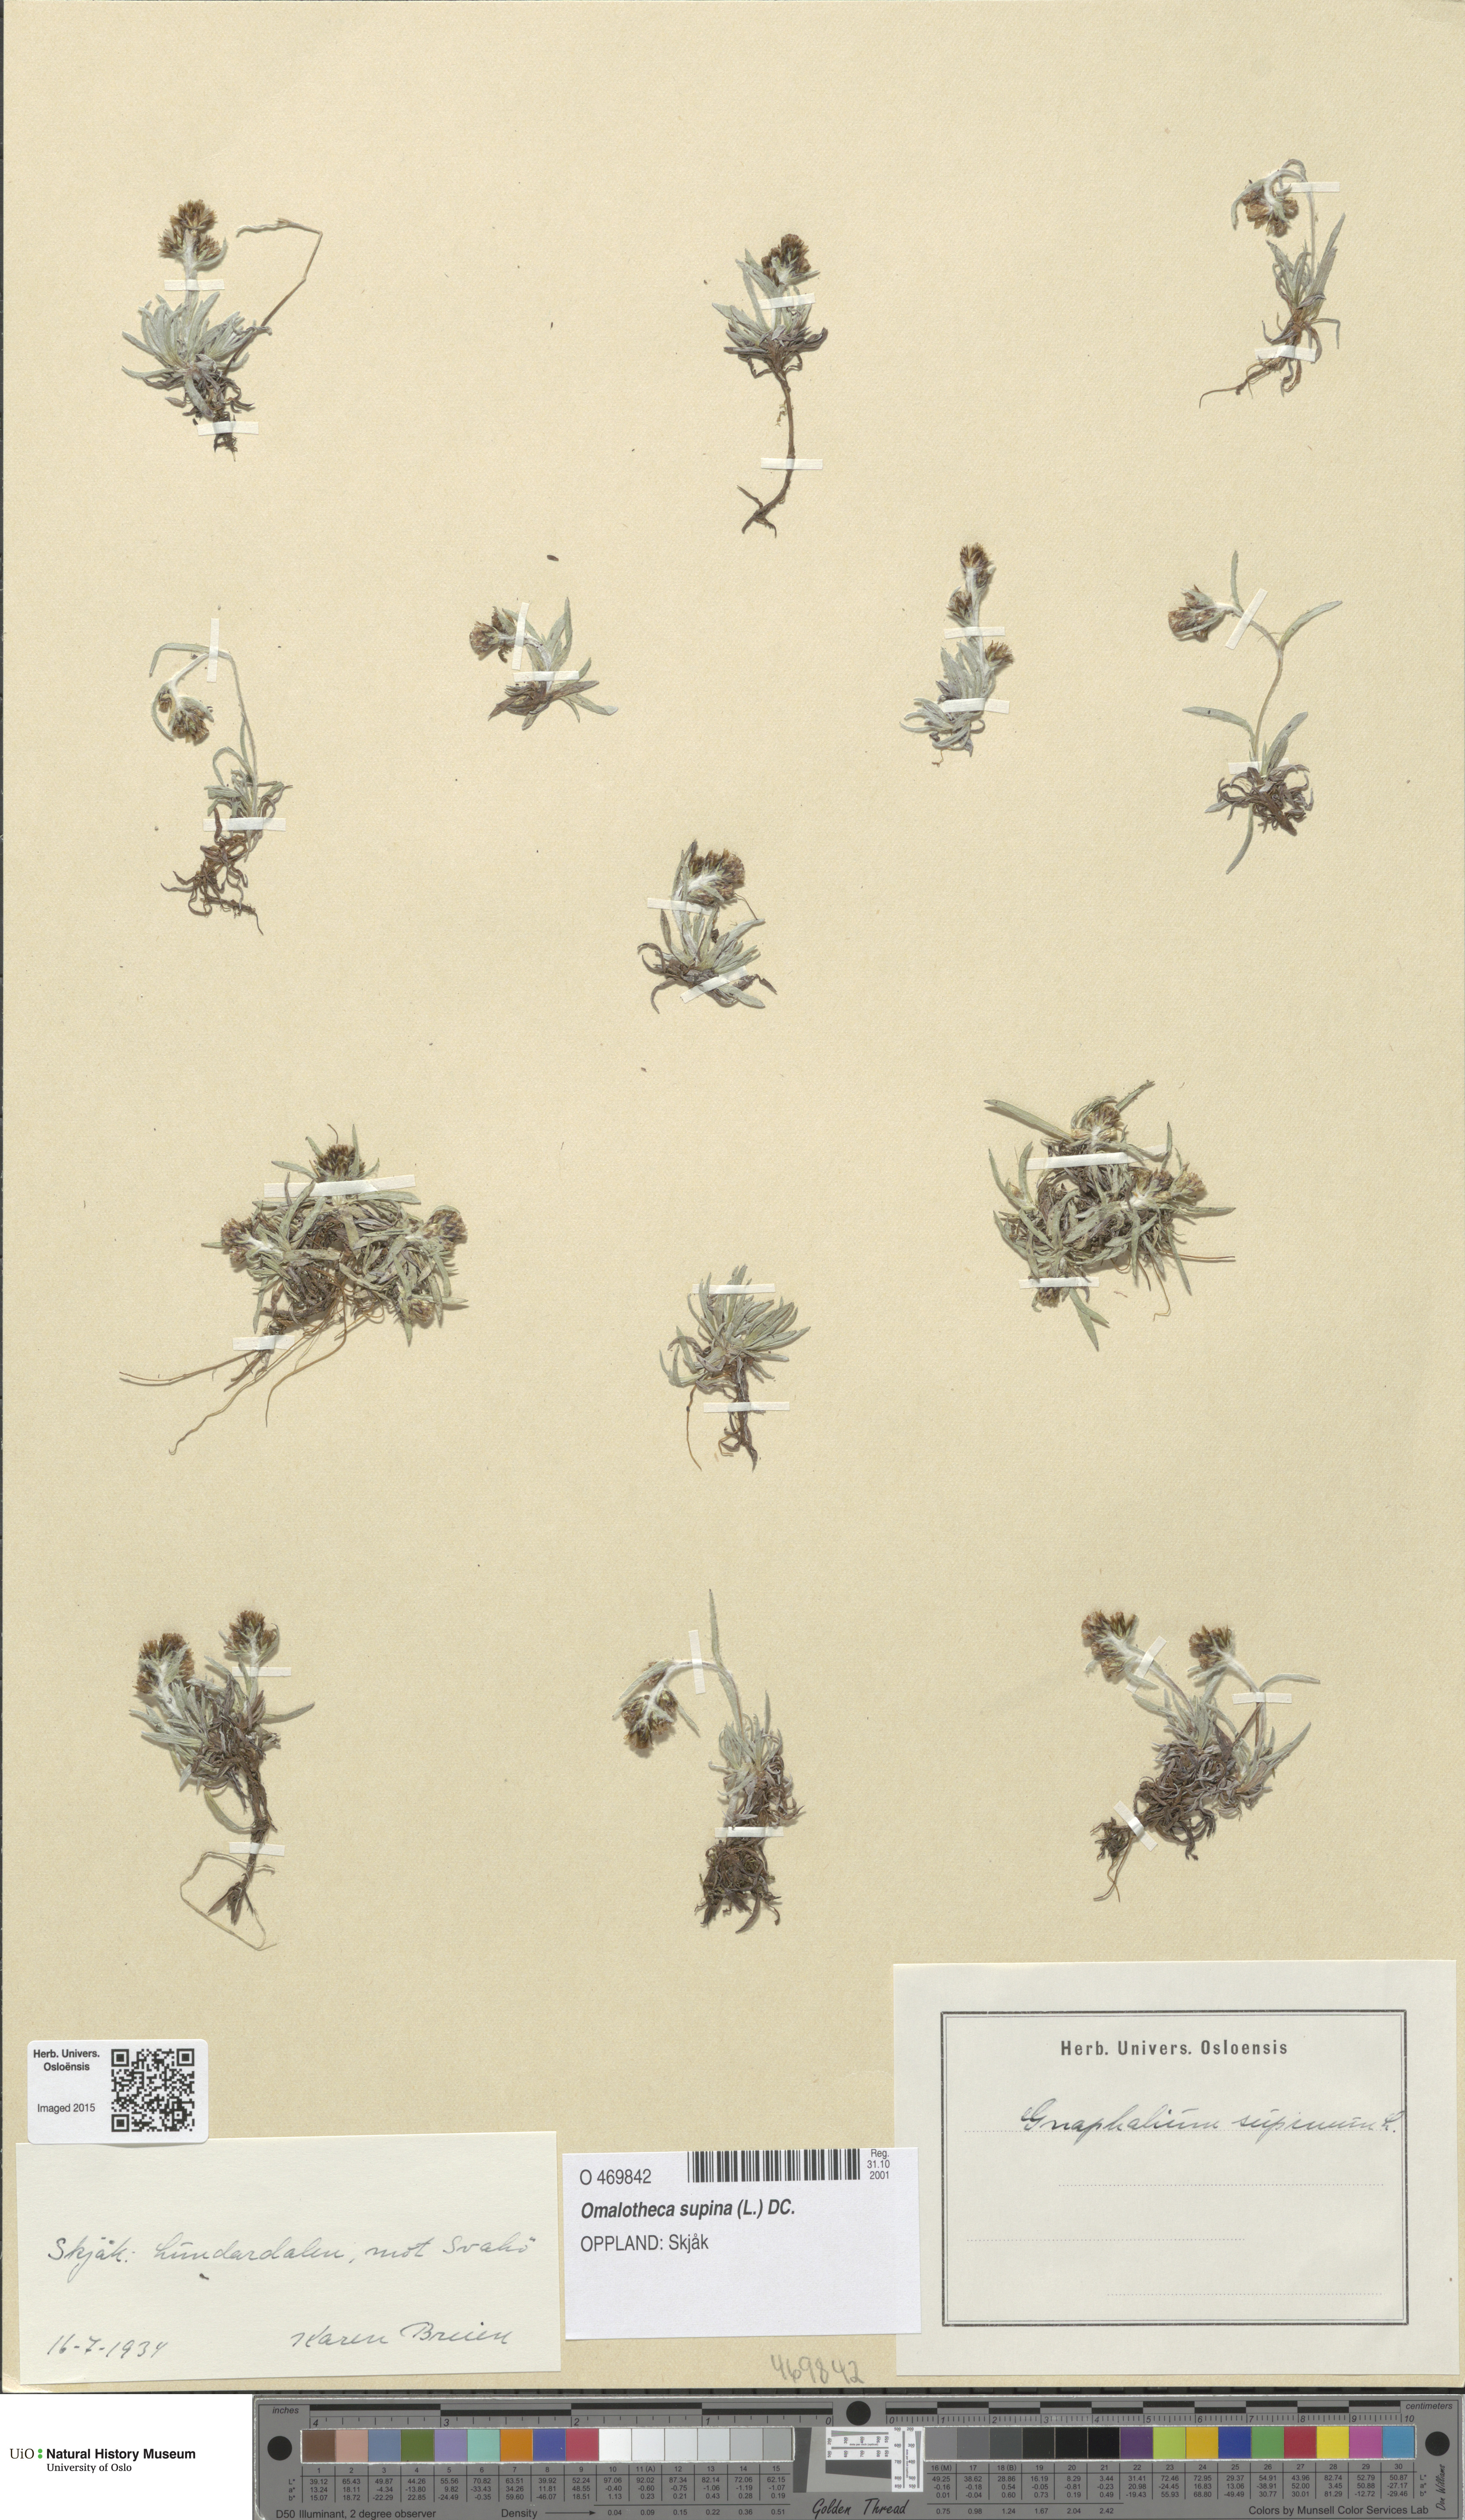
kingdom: Plantae
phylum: Tracheophyta
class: Magnoliopsida
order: Asterales
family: Asteraceae
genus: Omalotheca
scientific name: Omalotheca supina
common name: Alpine arctic-cudweed
